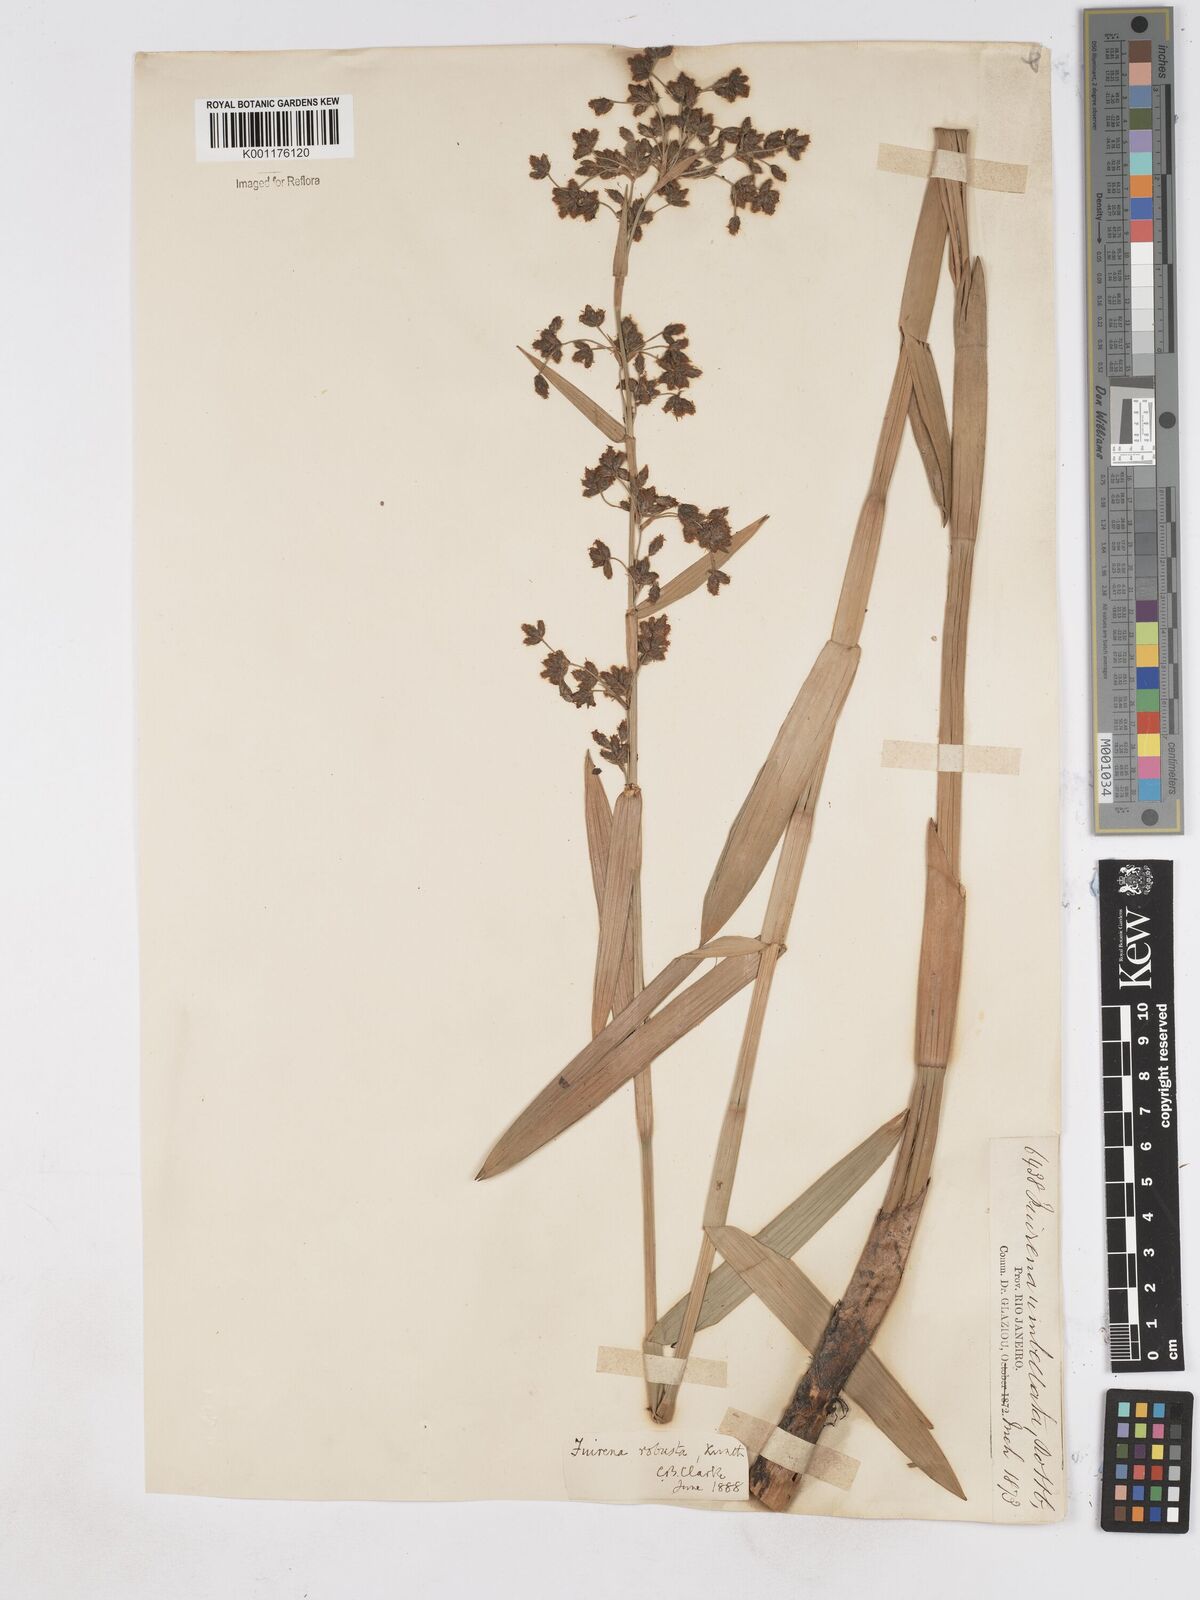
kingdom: Plantae
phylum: Tracheophyta
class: Liliopsida
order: Poales
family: Cyperaceae
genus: Fuirena
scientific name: Fuirena robusta
